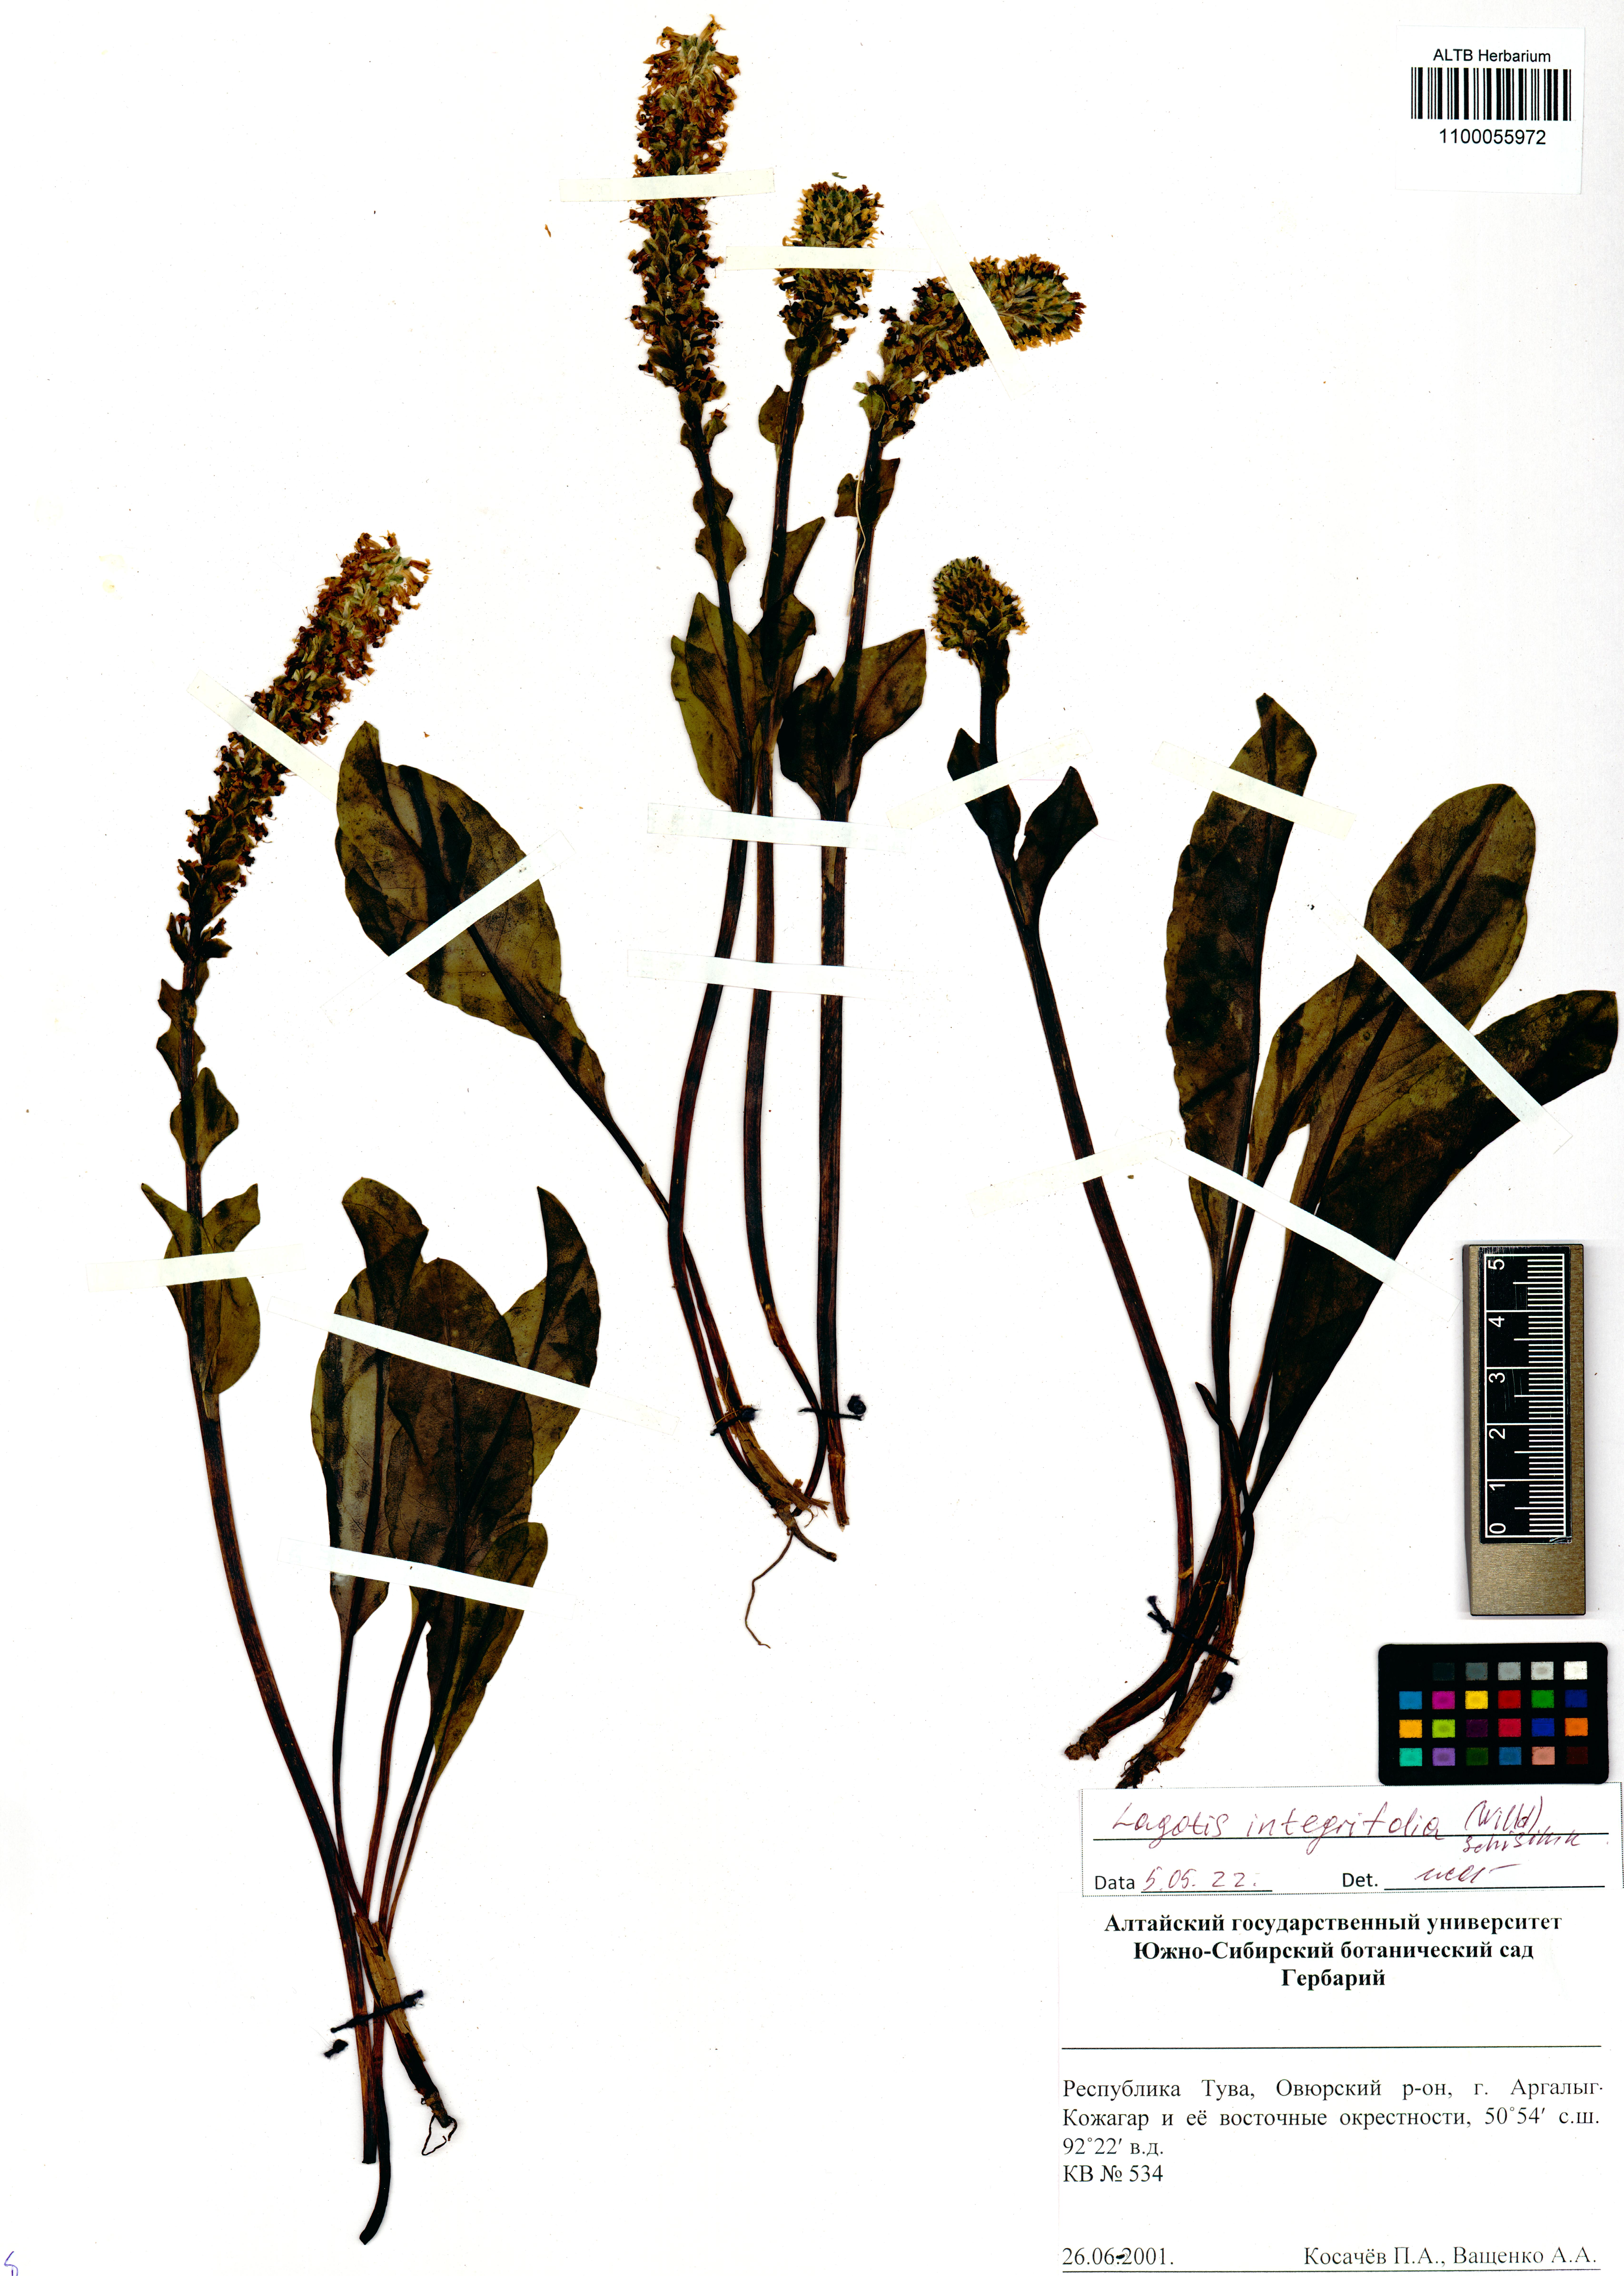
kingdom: Plantae
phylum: Tracheophyta
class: Magnoliopsida
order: Lamiales
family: Plantaginaceae
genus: Lagotis
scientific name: Lagotis integrifolia
